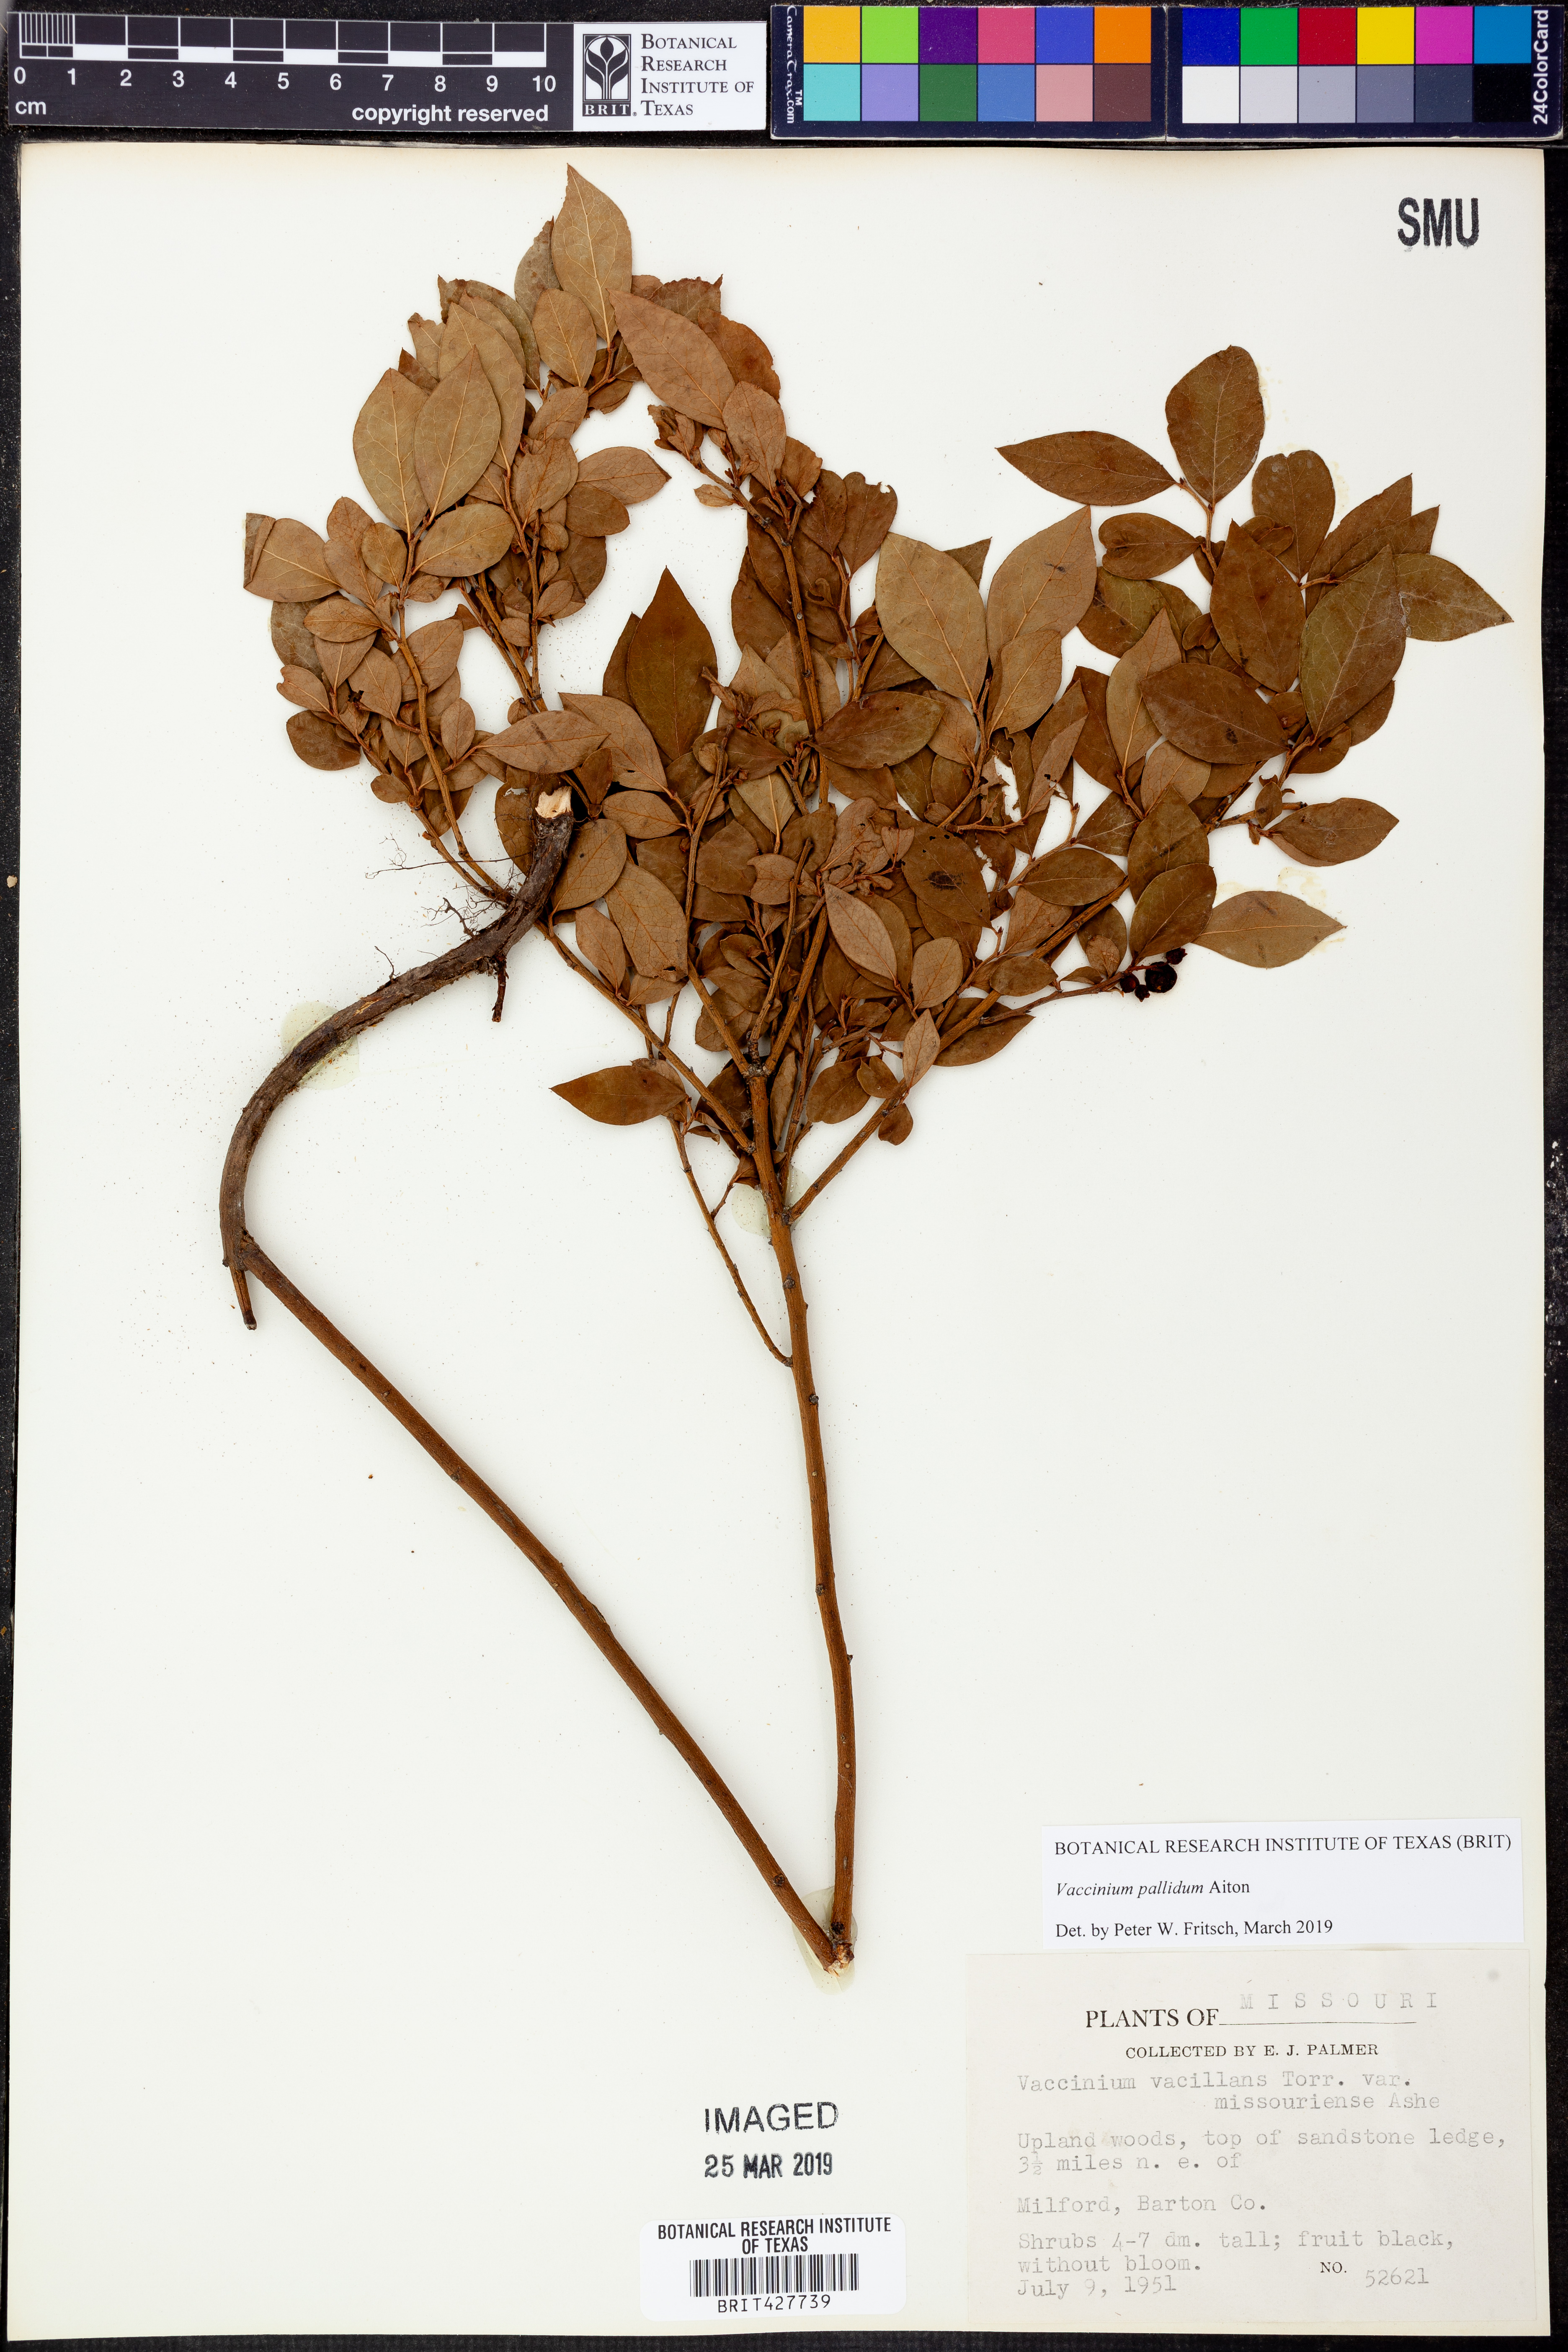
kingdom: Plantae
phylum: Tracheophyta
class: Magnoliopsida
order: Ericales
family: Ericaceae
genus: Vaccinium
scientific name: Vaccinium pallidum
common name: Blue ridge blueberry
